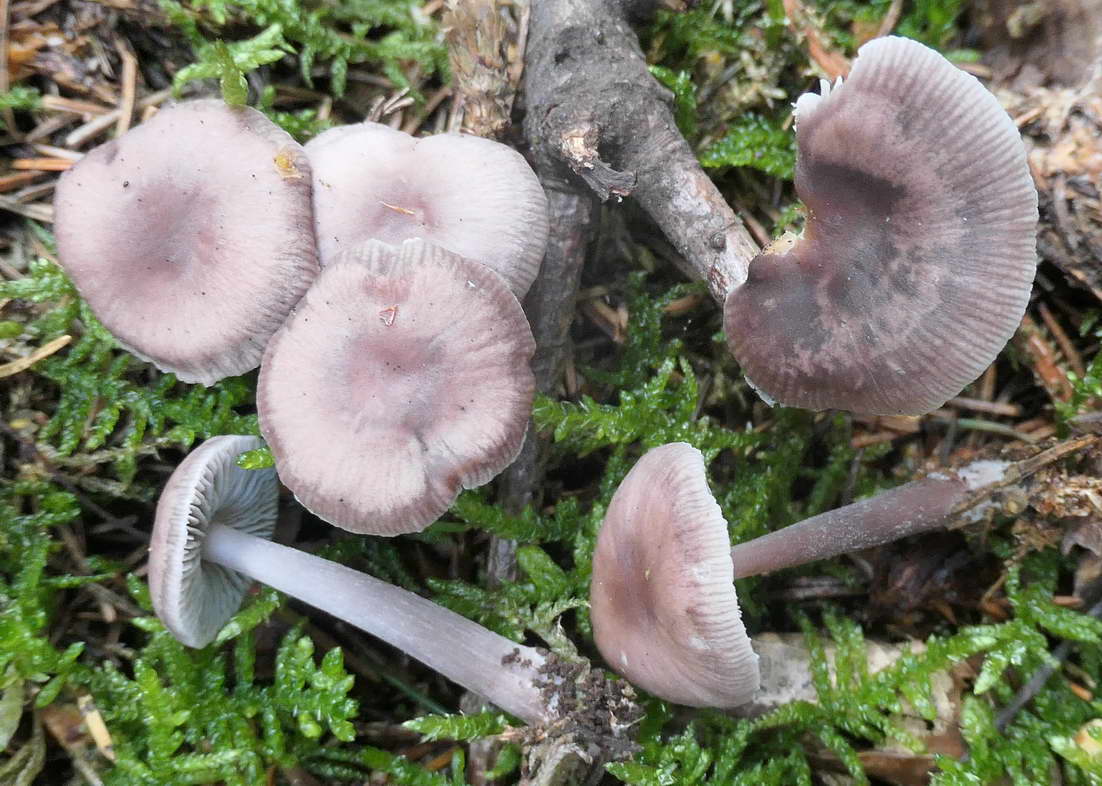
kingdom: Fungi
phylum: Basidiomycota
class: Agaricomycetes
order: Agaricales
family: Mycenaceae
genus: Prunulus
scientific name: Prunulus diosmus
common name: tobaks-huesvamp
